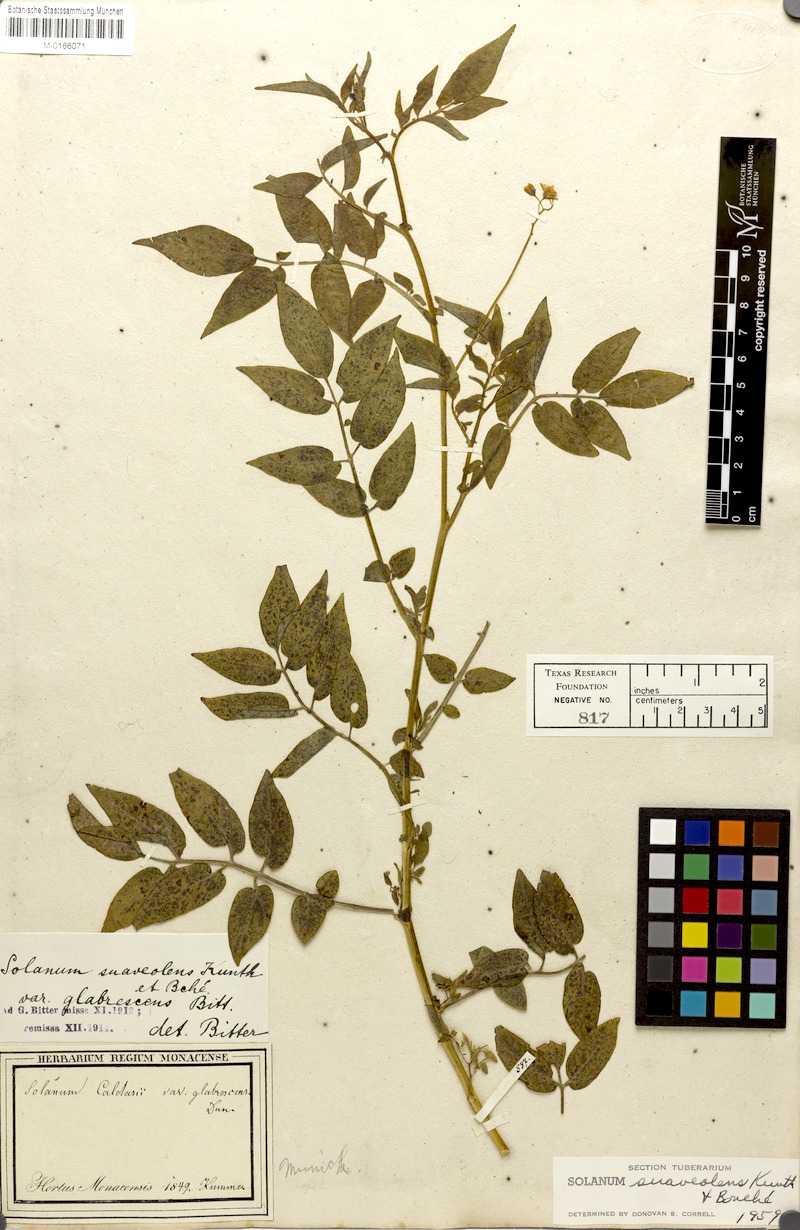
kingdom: Plantae
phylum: Tracheophyta
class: Magnoliopsida
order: Solanales
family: Solanaceae
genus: Solanum
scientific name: Solanum suaveolens
